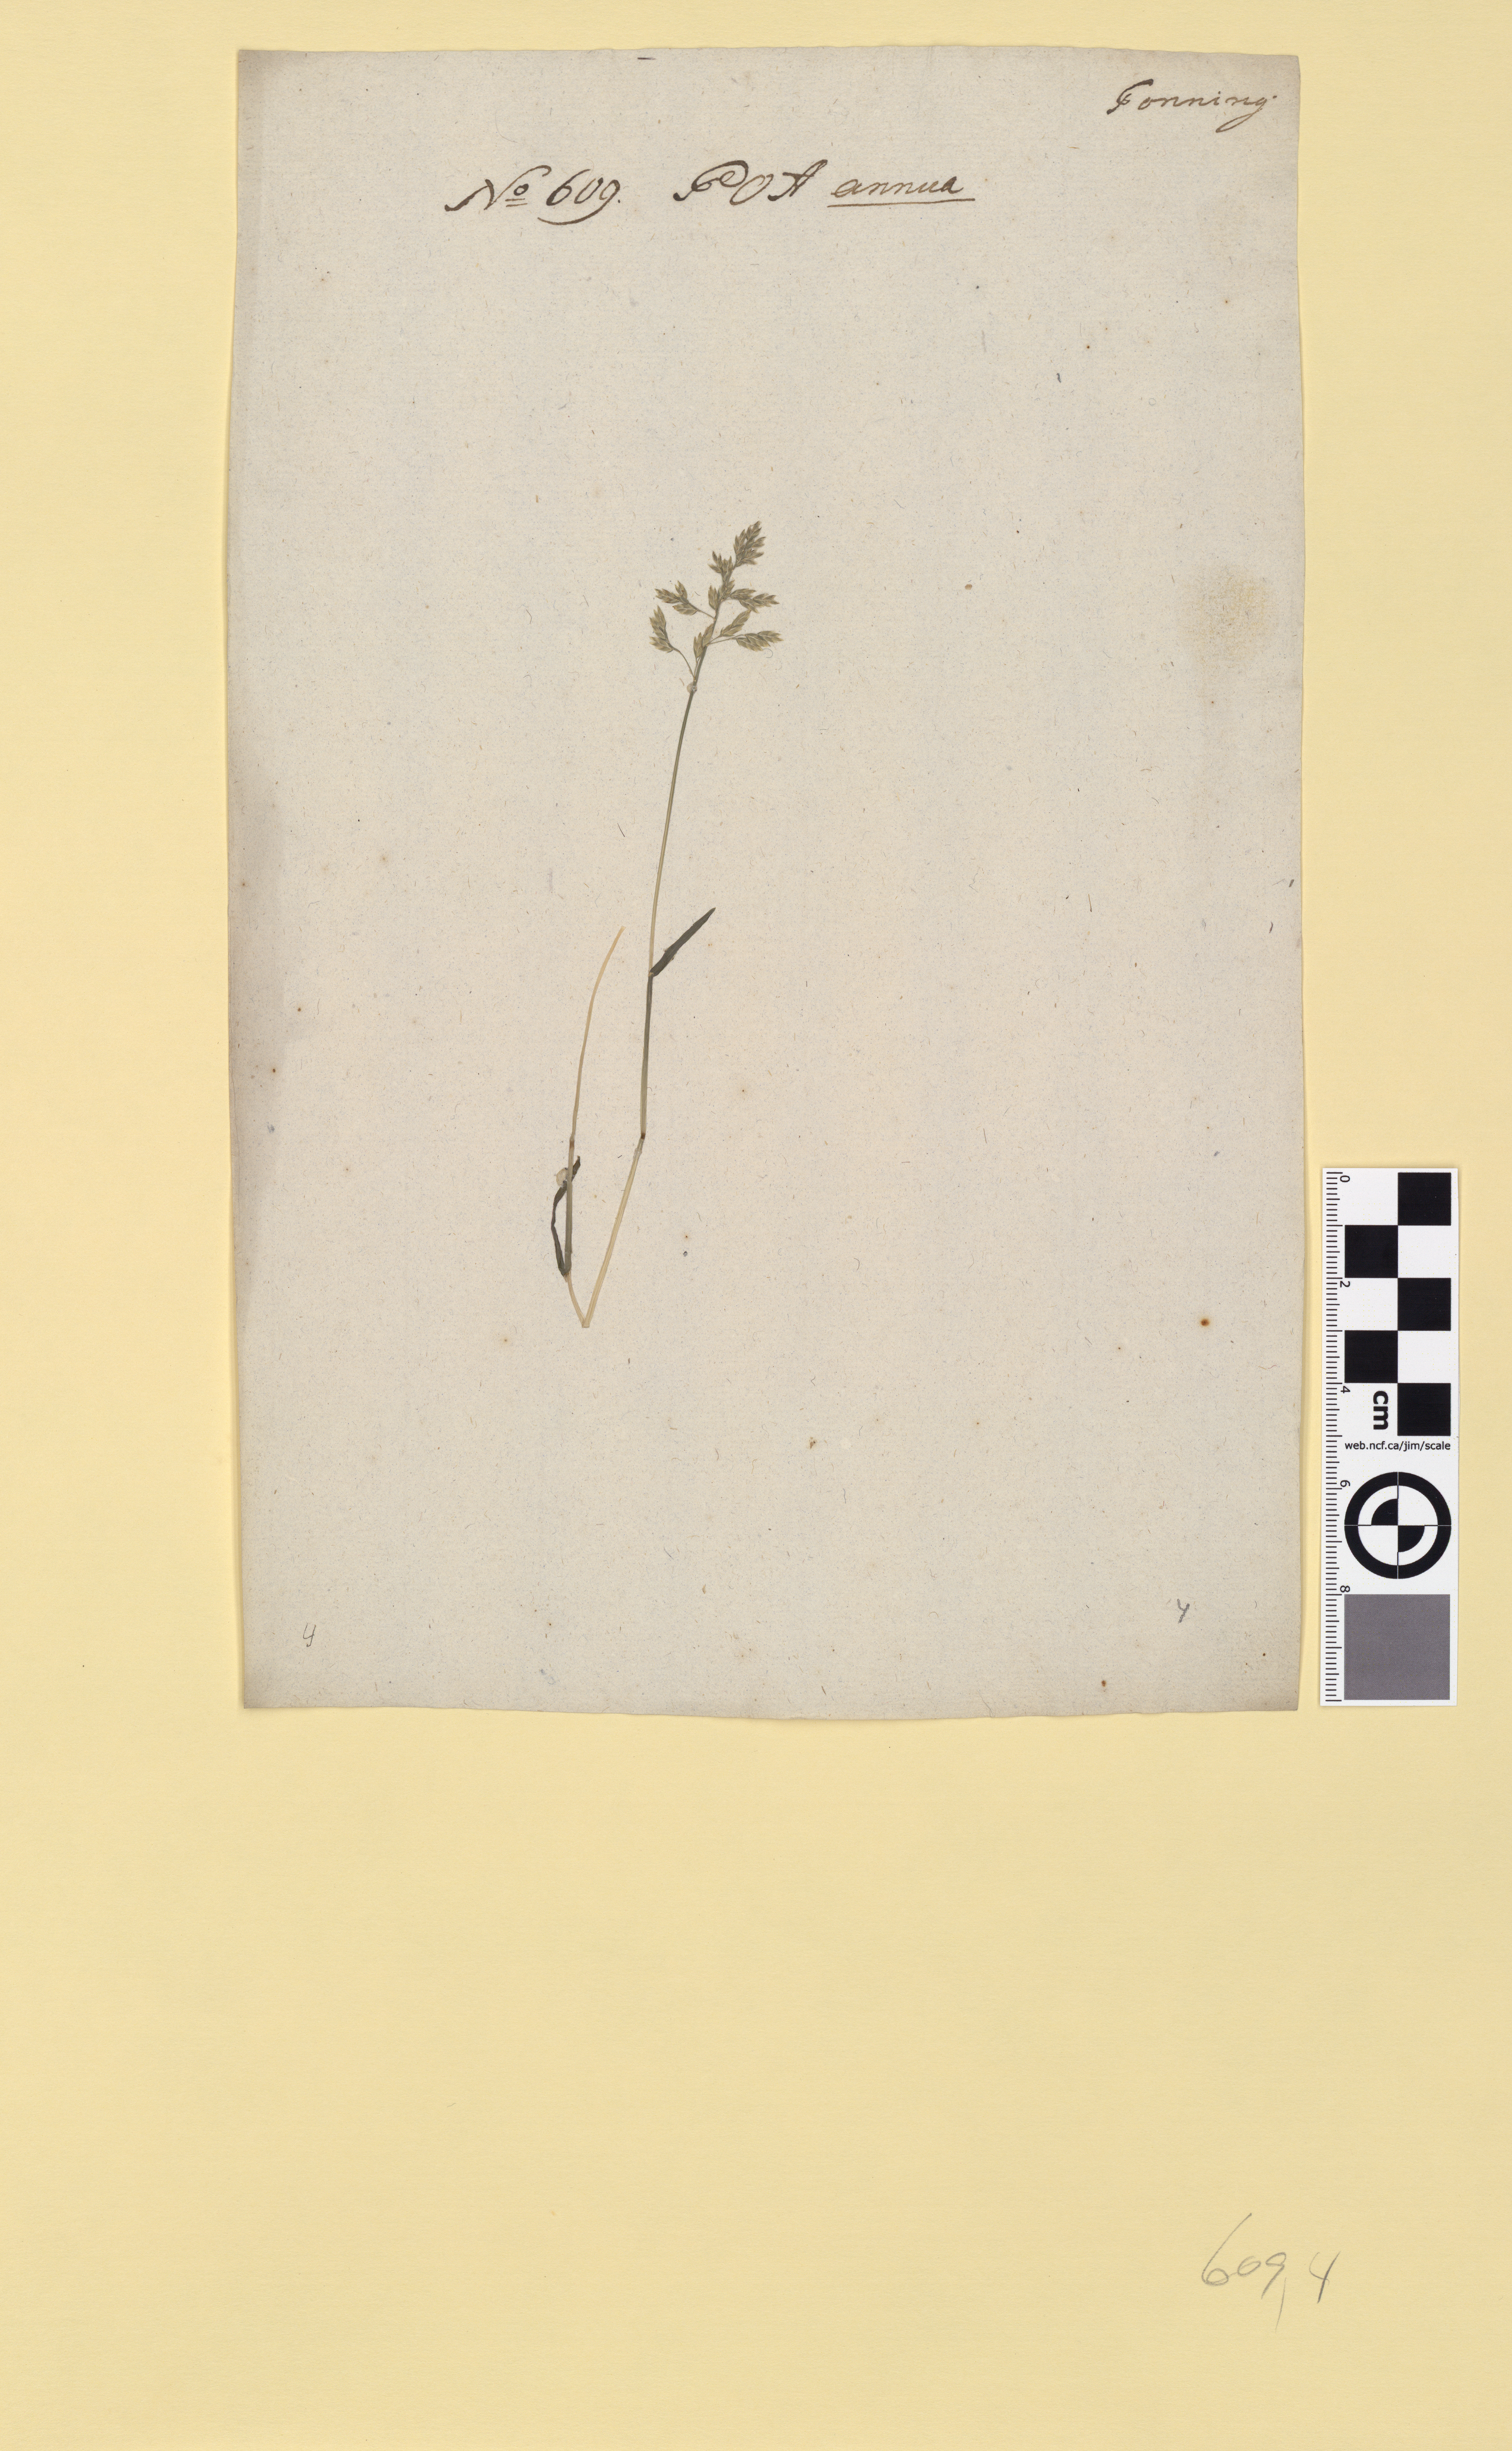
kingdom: Plantae
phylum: Tracheophyta
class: Liliopsida
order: Poales
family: Poaceae
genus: Poa
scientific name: Poa annua
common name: Annual bluegrass
